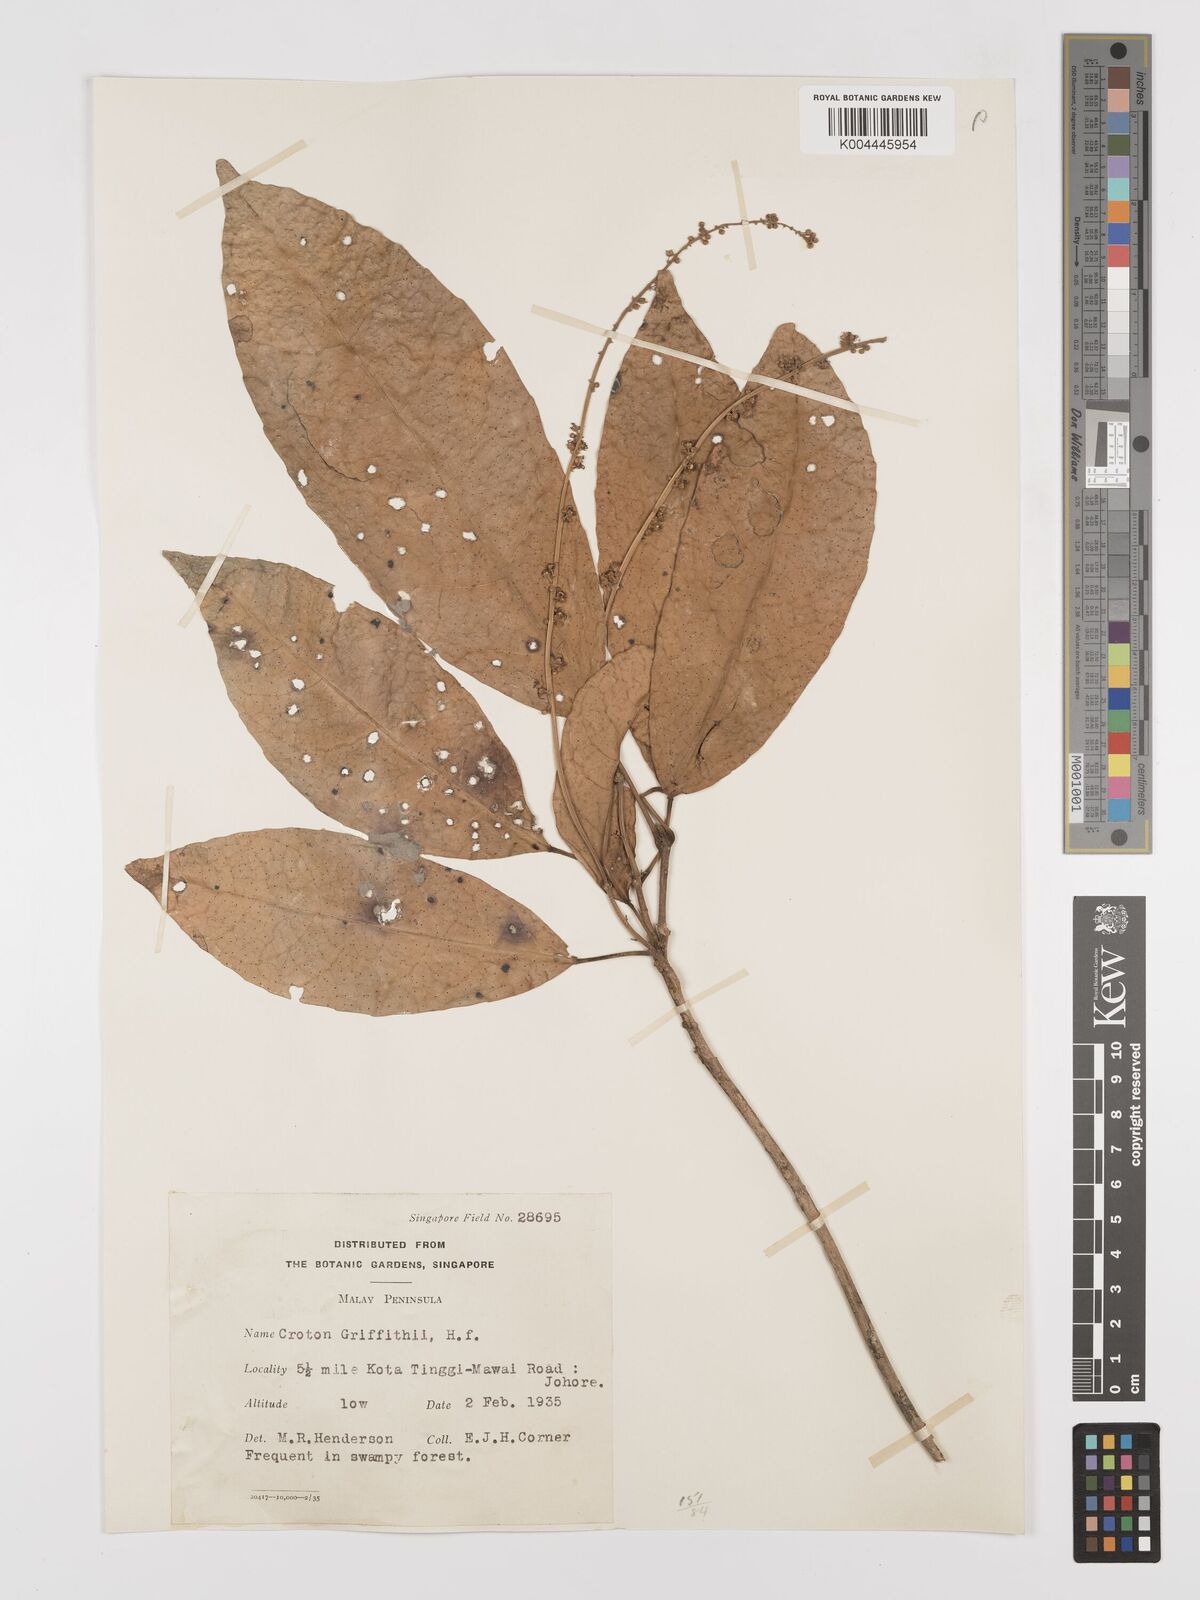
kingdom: Plantae
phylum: Tracheophyta
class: Magnoliopsida
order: Malpighiales
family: Euphorbiaceae
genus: Croton
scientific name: Croton griffithii
